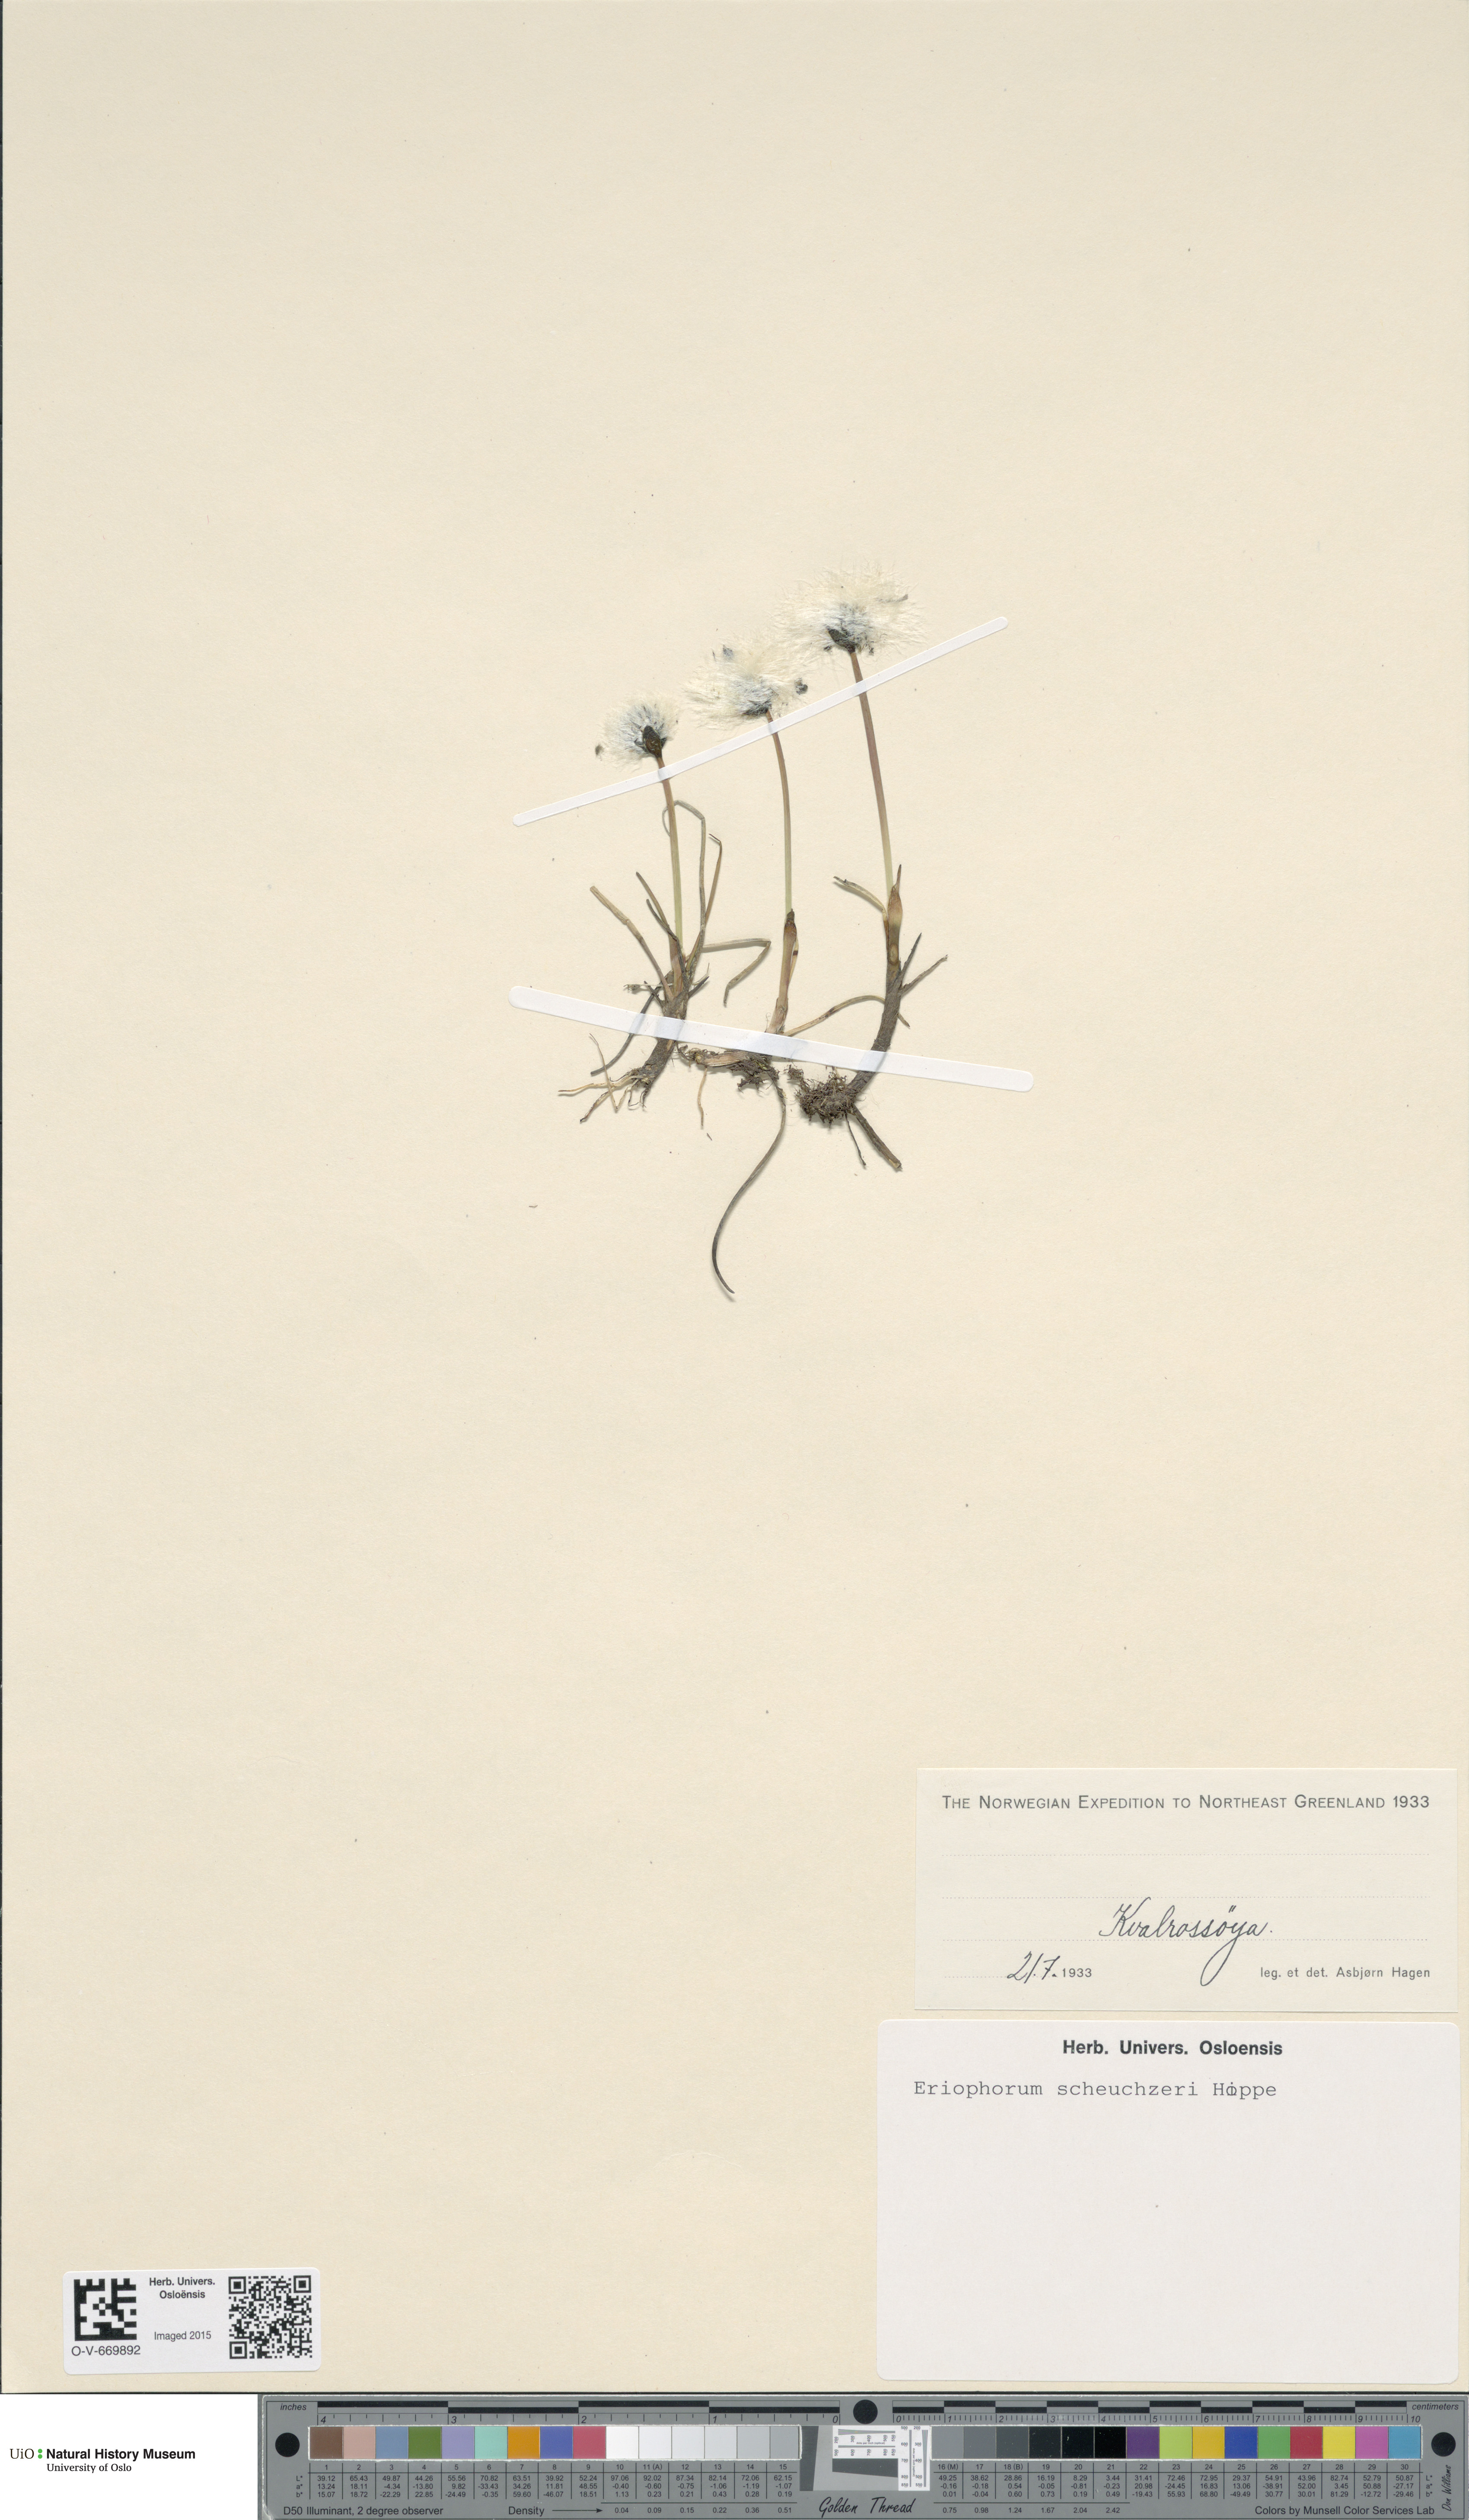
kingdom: Plantae
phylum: Tracheophyta
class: Liliopsida
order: Poales
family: Cyperaceae
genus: Eriophorum
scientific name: Eriophorum scheuchzeri
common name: Scheuchzer's cottongrass
